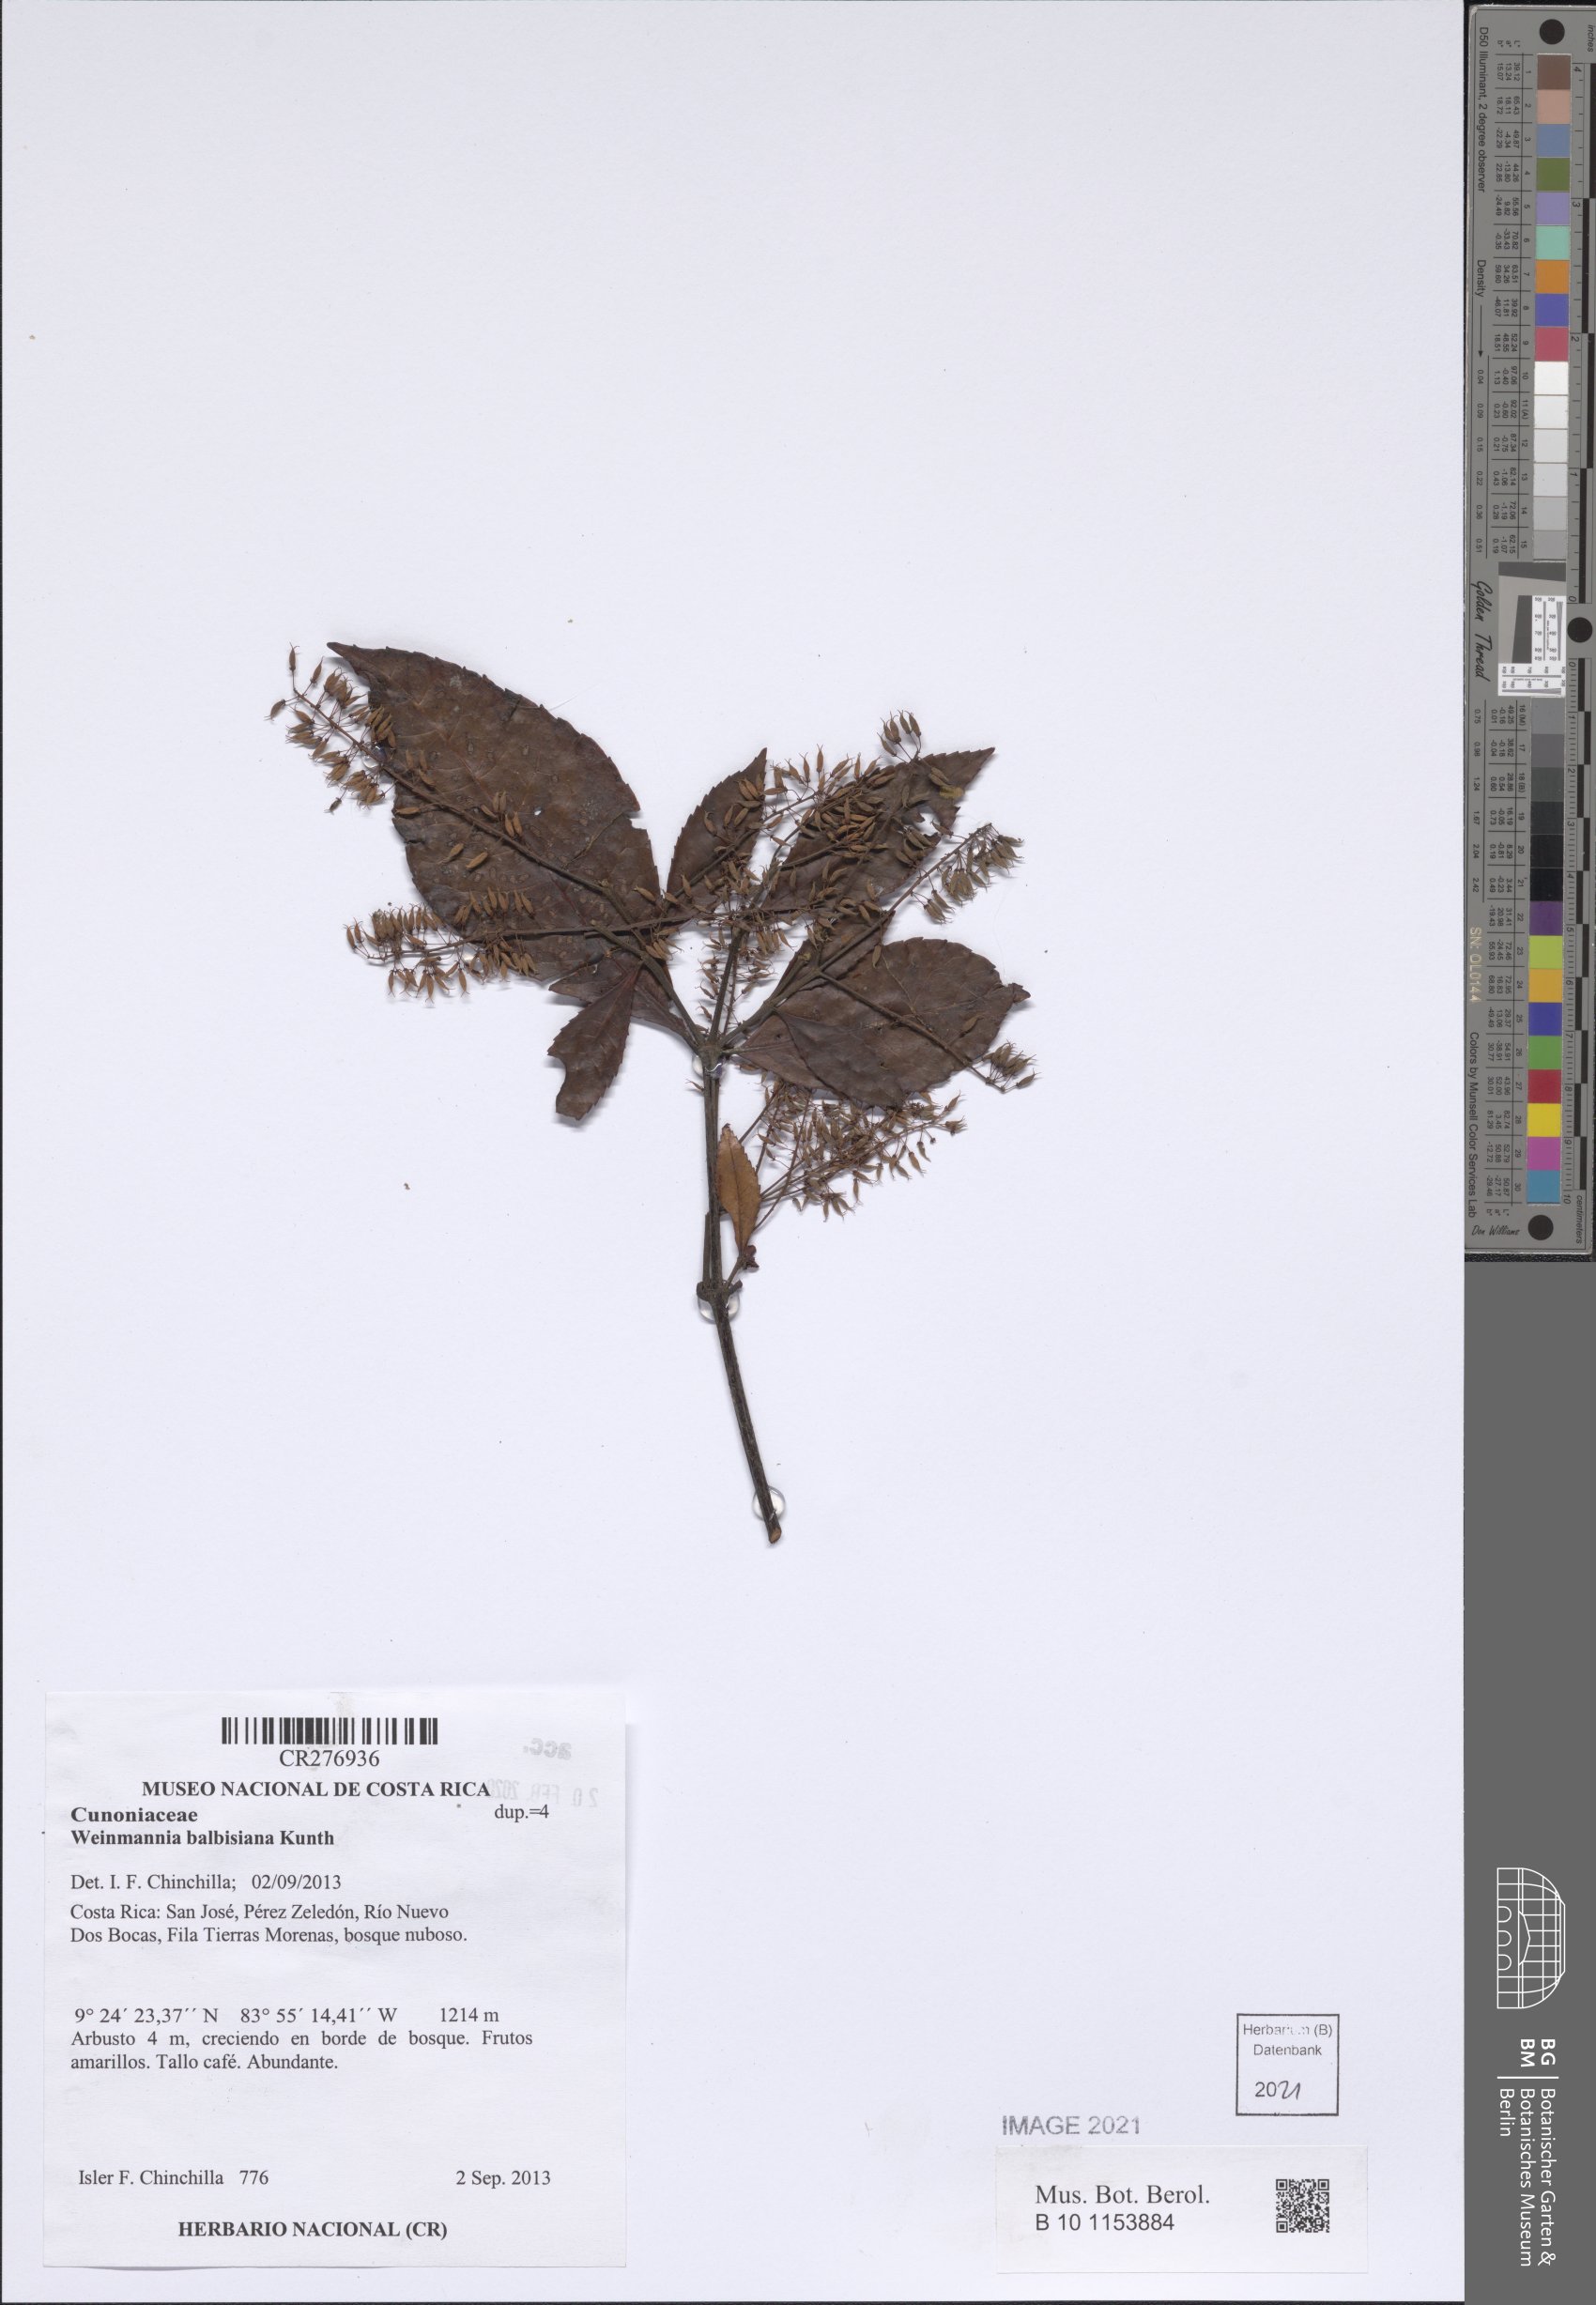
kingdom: Plantae
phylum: Tracheophyta
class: Magnoliopsida
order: Oxalidales
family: Cunoniaceae
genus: Weinmannia
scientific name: Weinmannia balbisana
